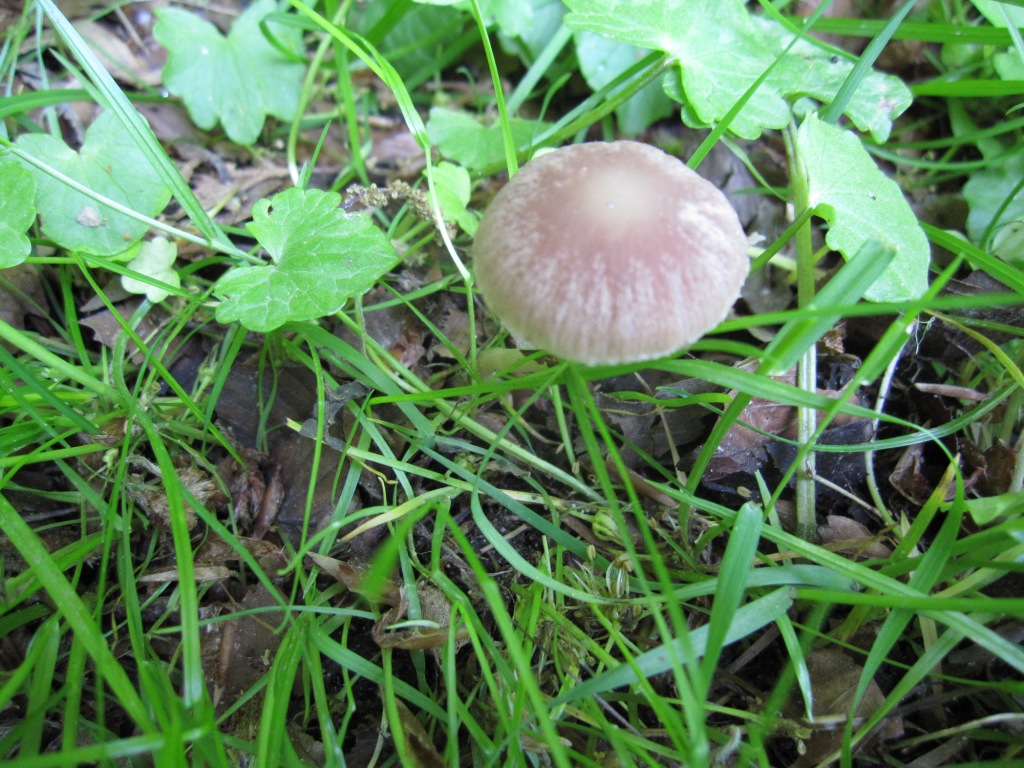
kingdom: Fungi
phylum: Basidiomycota
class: Agaricomycetes
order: Agaricales
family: Psathyrellaceae
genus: Psathyrella
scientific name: Psathyrella bipellis
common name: vinrød mørkhat
